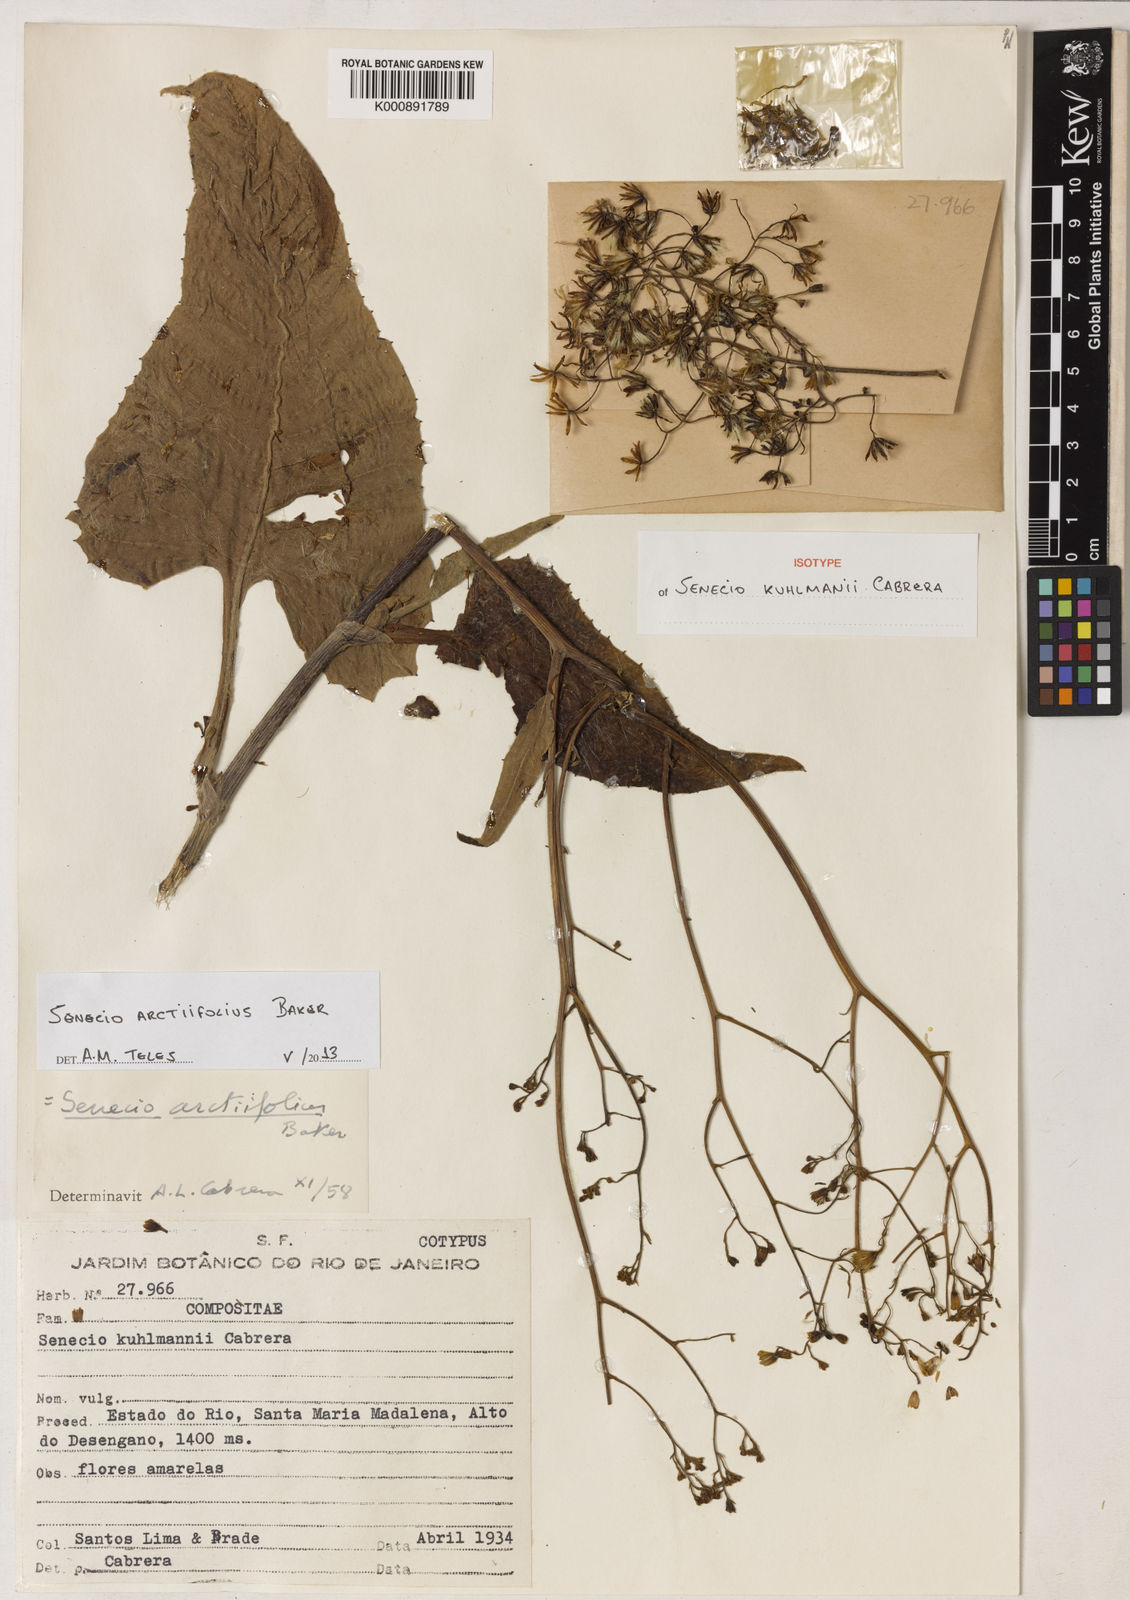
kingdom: Plantae
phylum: Tracheophyta
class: Magnoliopsida
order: Asterales
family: Asteraceae
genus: Senecio
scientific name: Senecio grandis
